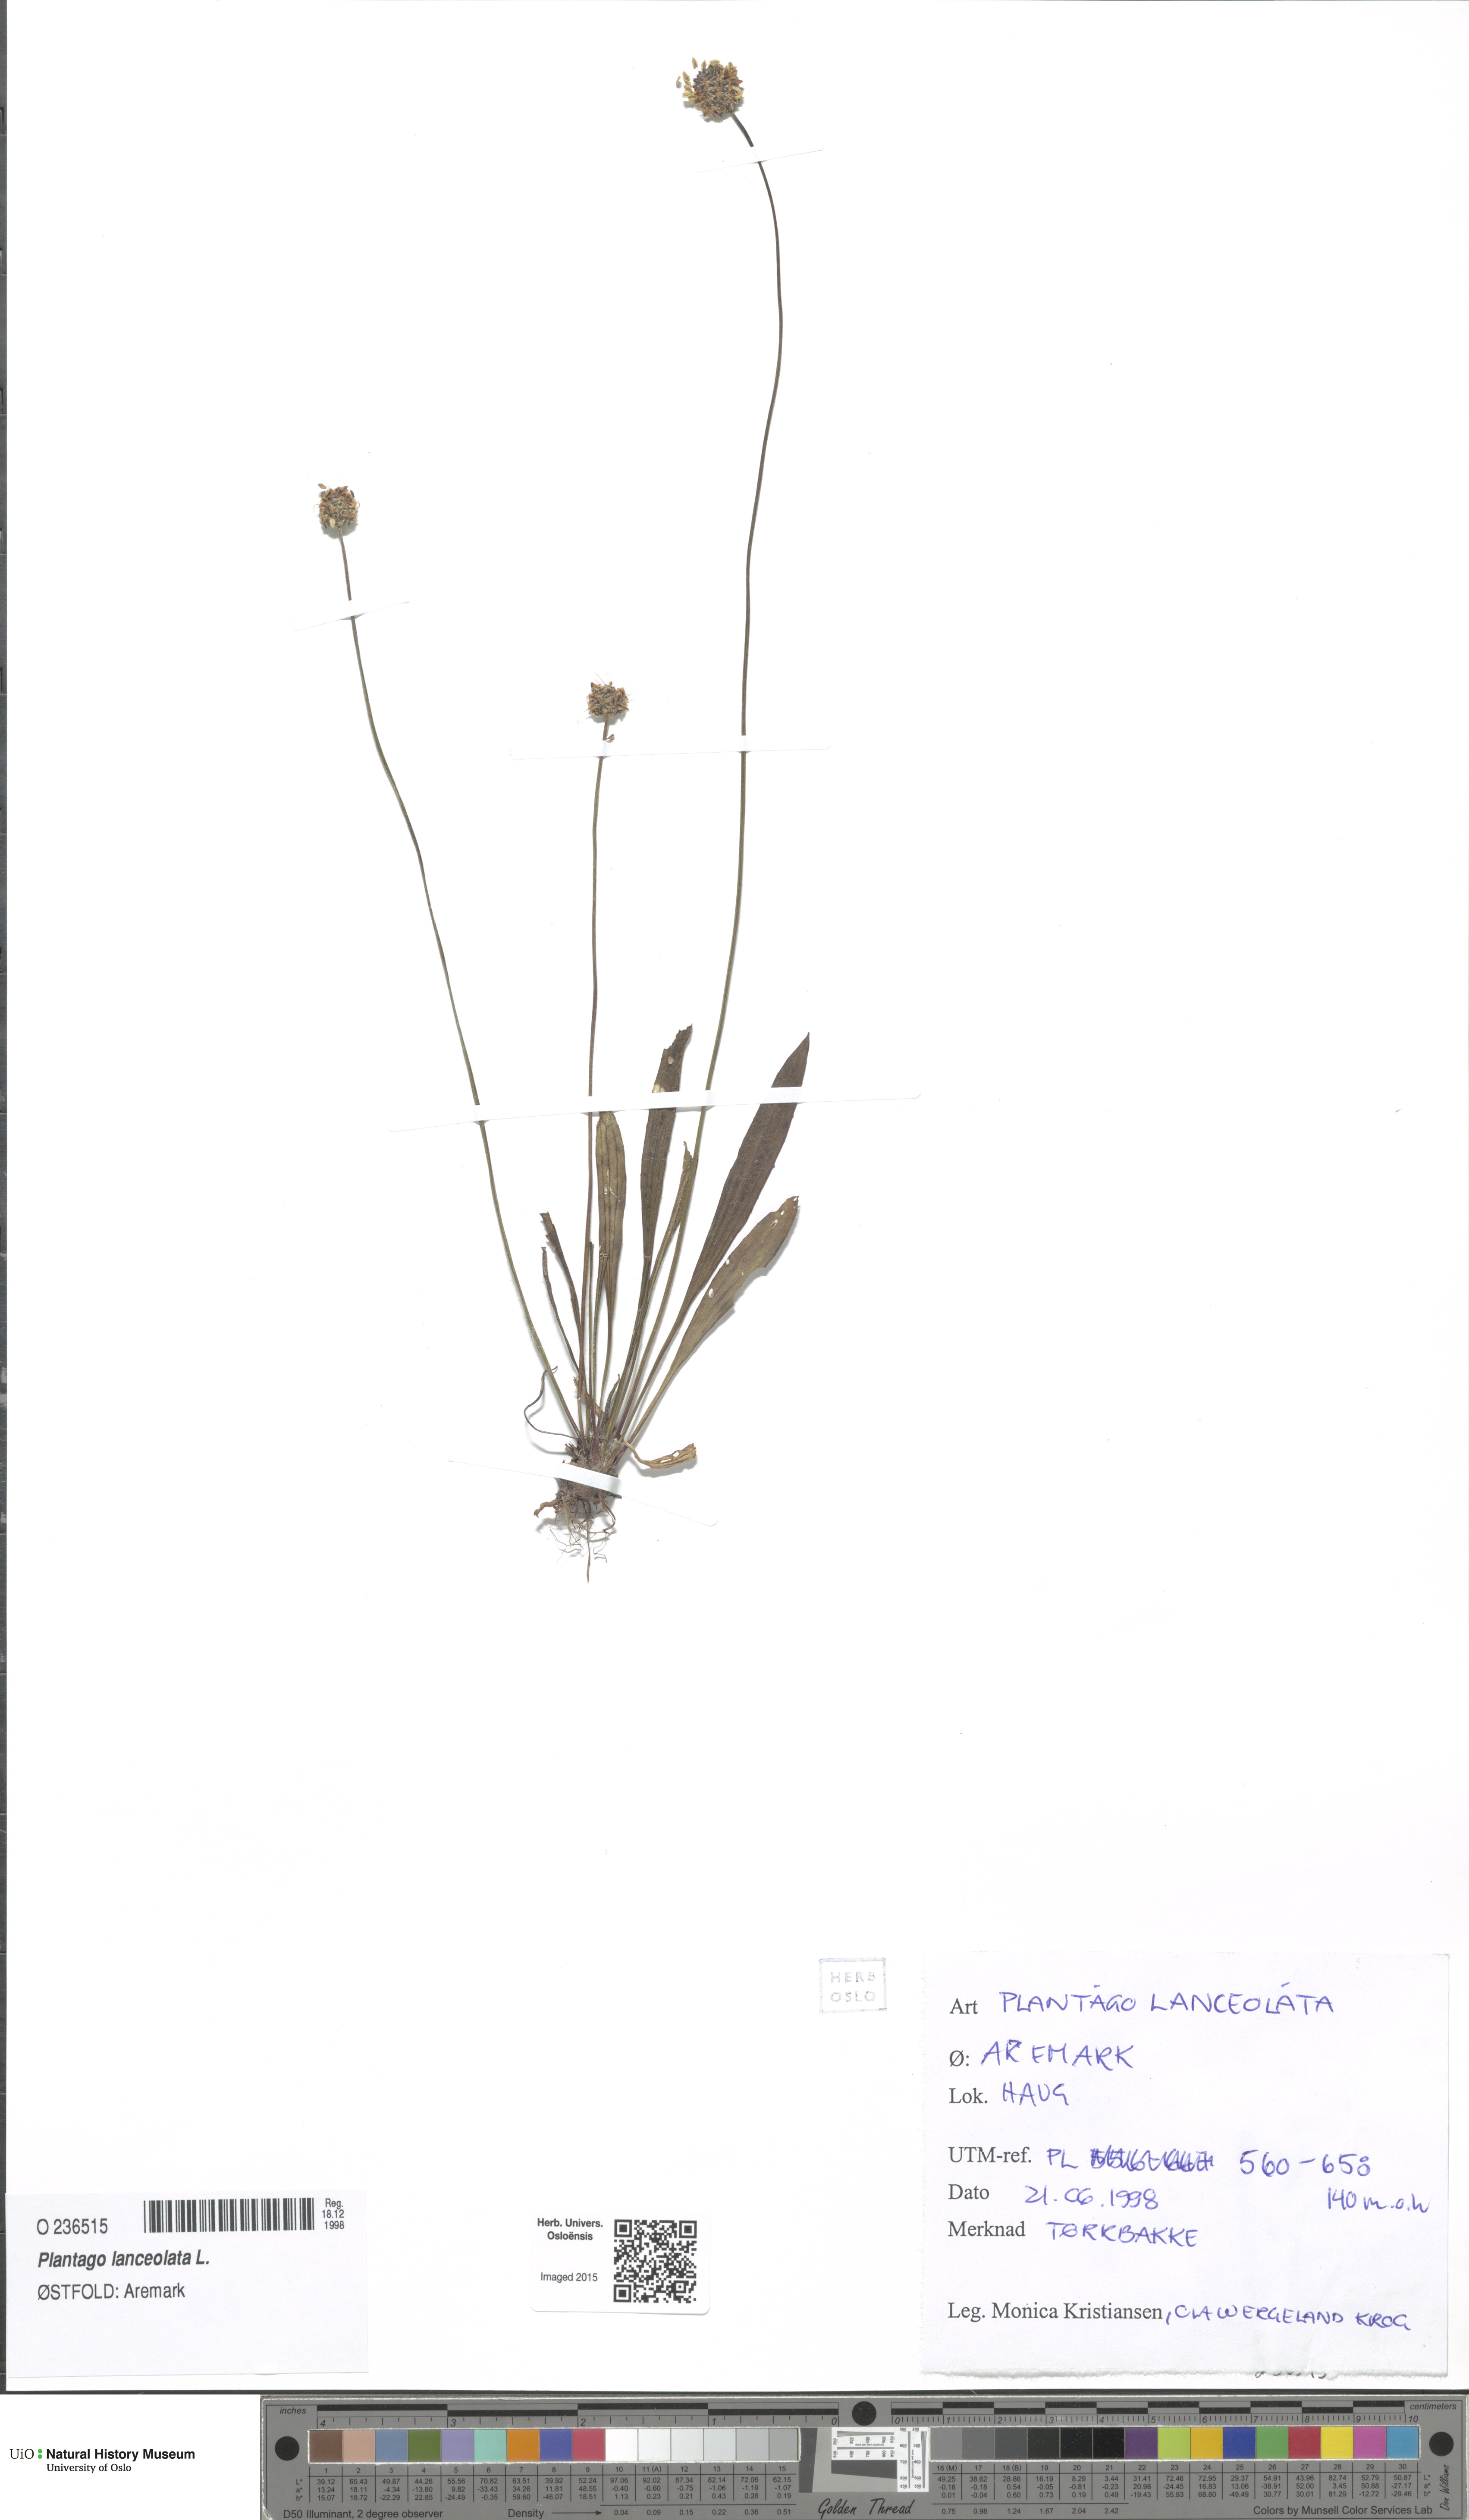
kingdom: Plantae
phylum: Tracheophyta
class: Magnoliopsida
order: Lamiales
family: Plantaginaceae
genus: Plantago
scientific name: Plantago lanceolata
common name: Ribwort plantain
